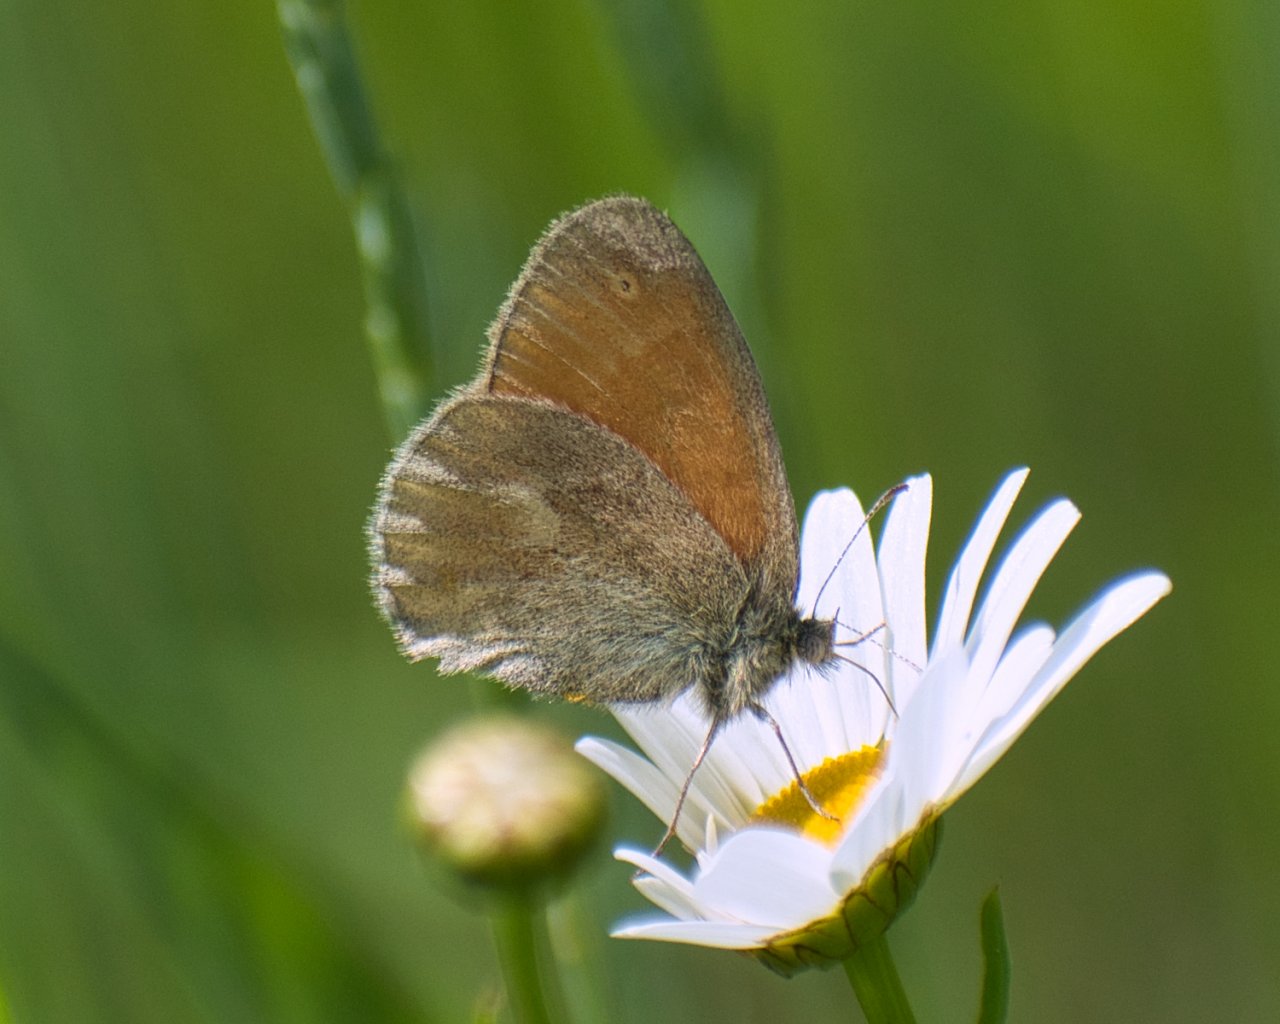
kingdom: Animalia
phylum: Arthropoda
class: Insecta
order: Lepidoptera
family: Nymphalidae
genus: Coenonympha
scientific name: Coenonympha tullia
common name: Large Heath
